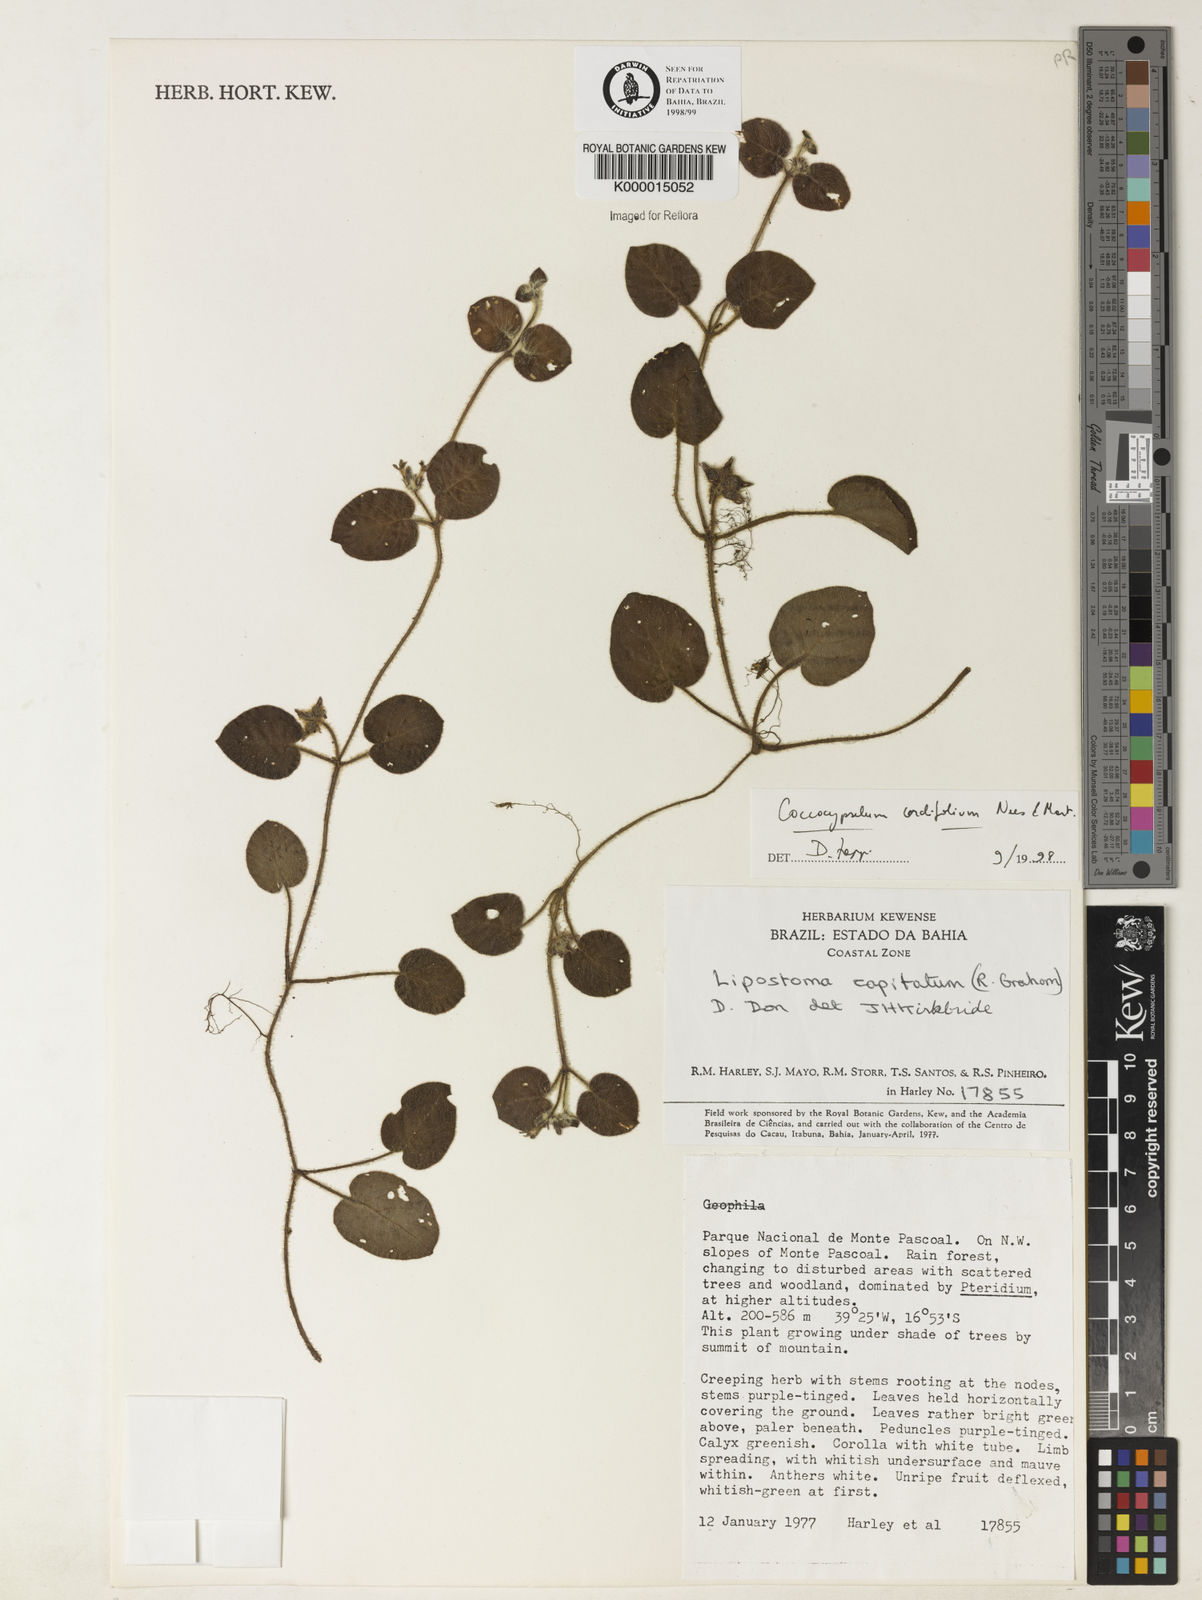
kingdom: Plantae
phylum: Tracheophyta
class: Magnoliopsida
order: Gentianales
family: Rubiaceae
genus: Coccocypselum
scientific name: Coccocypselum cordifolium
